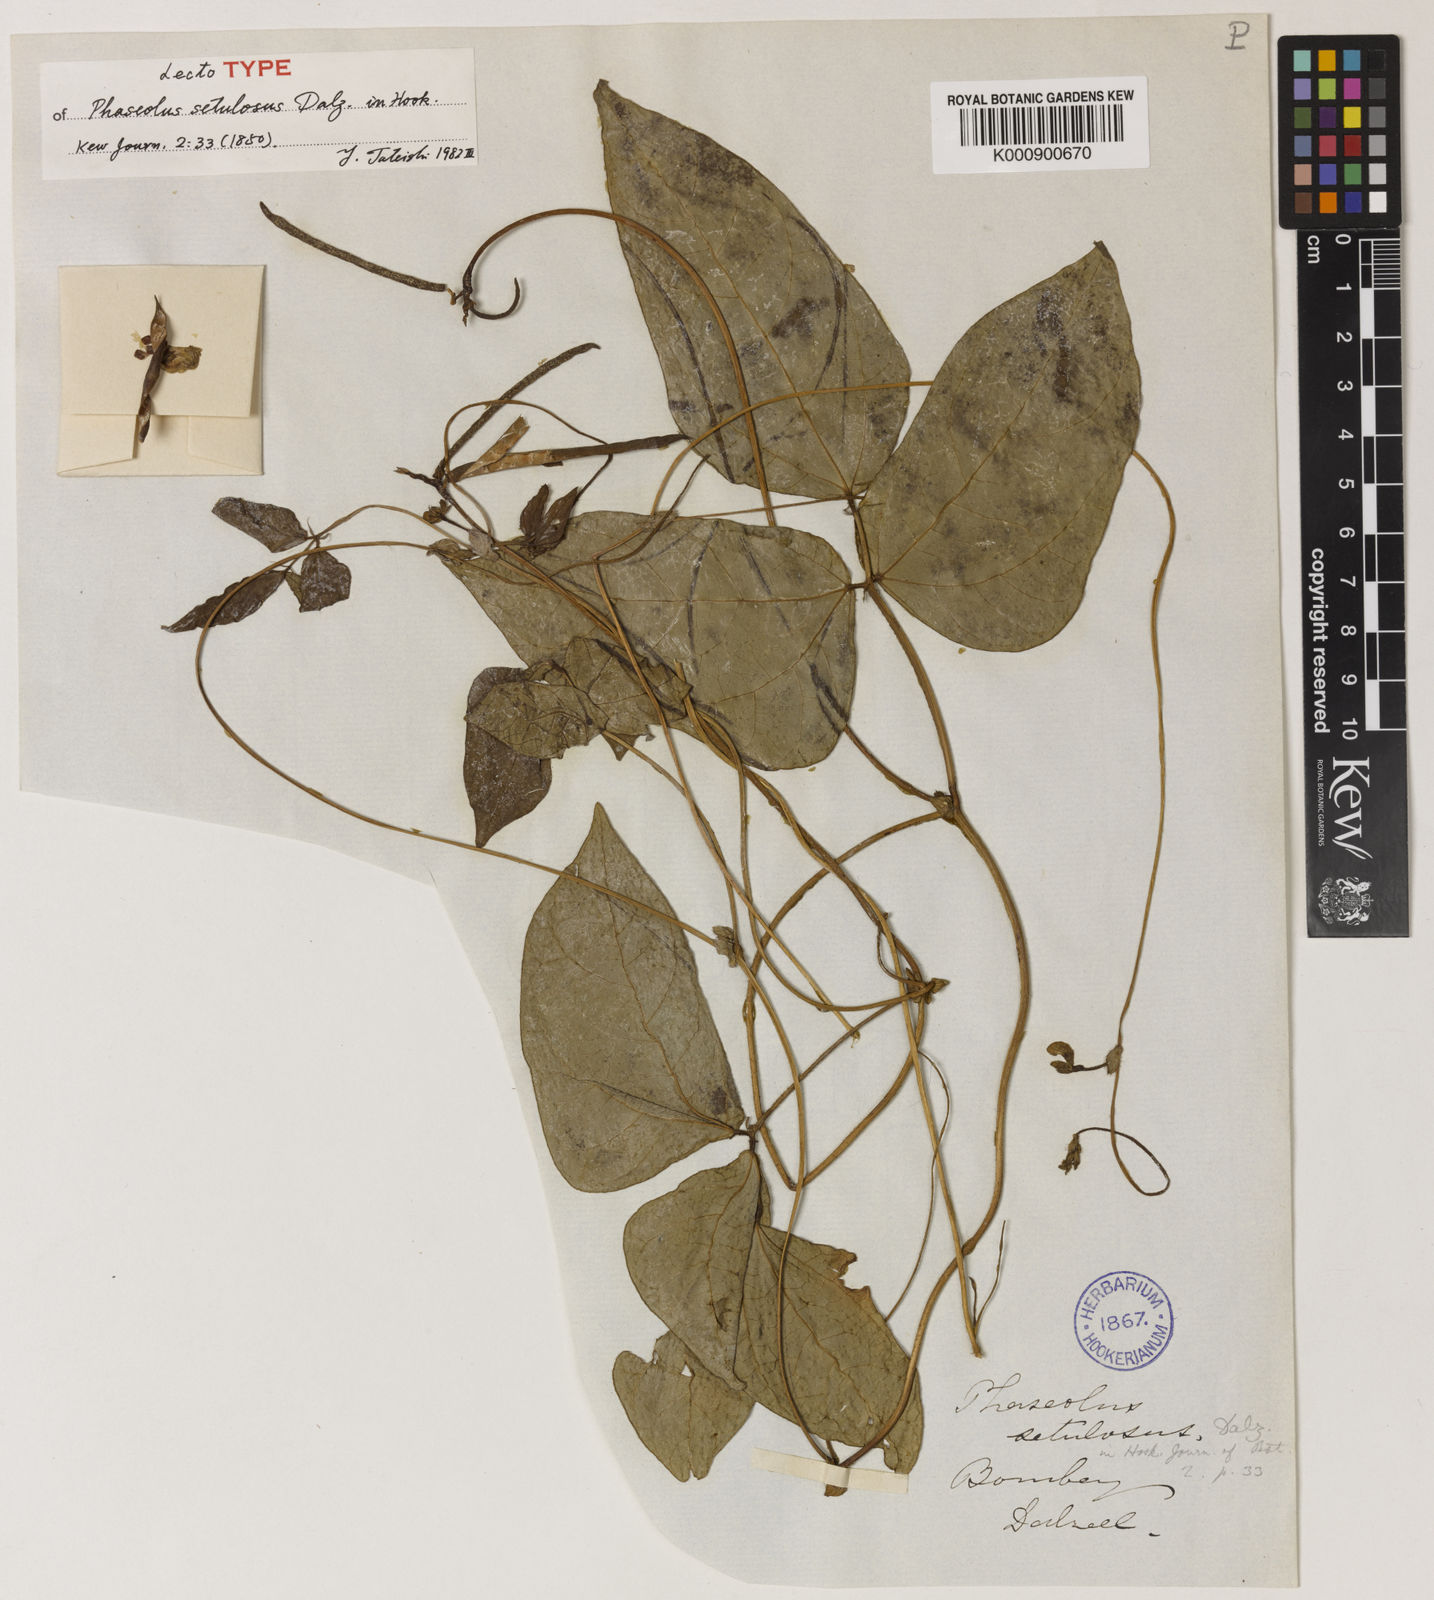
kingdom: Plantae
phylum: Tracheophyta
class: Magnoliopsida
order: Fabales
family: Fabaceae
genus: Vigna
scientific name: Vigna radiata
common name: Mung-bean
